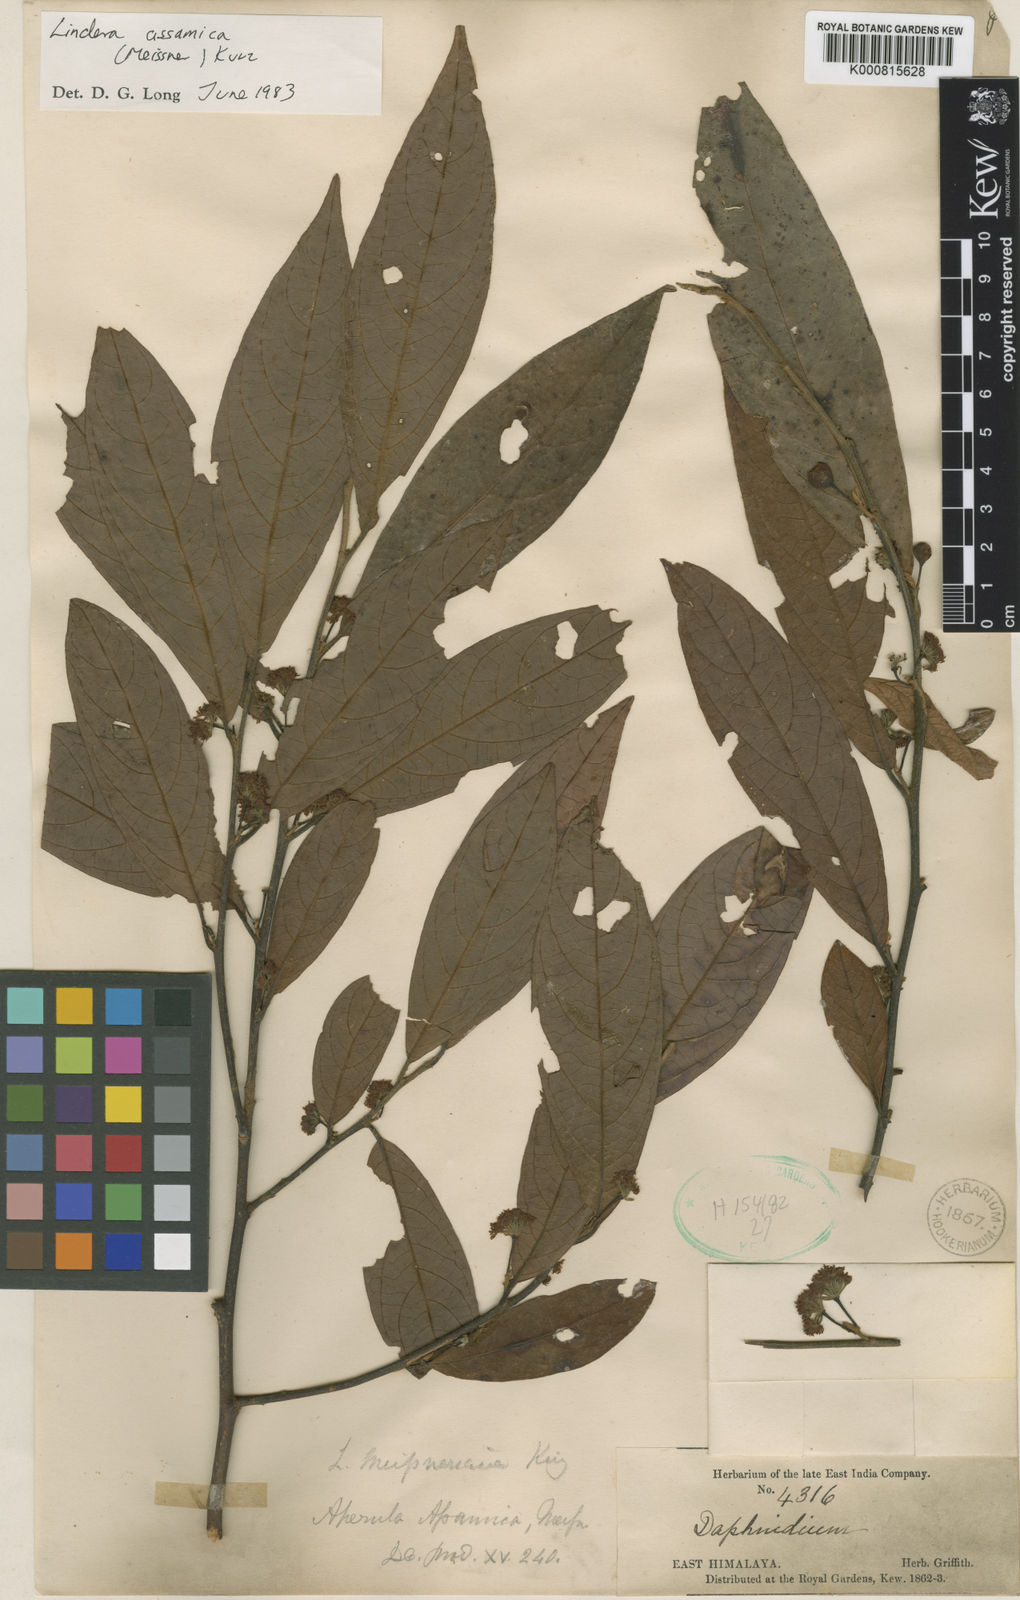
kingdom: Plantae
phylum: Tracheophyta
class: Magnoliopsida
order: Laurales
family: Lauraceae
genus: Lindera
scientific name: Lindera assamica
